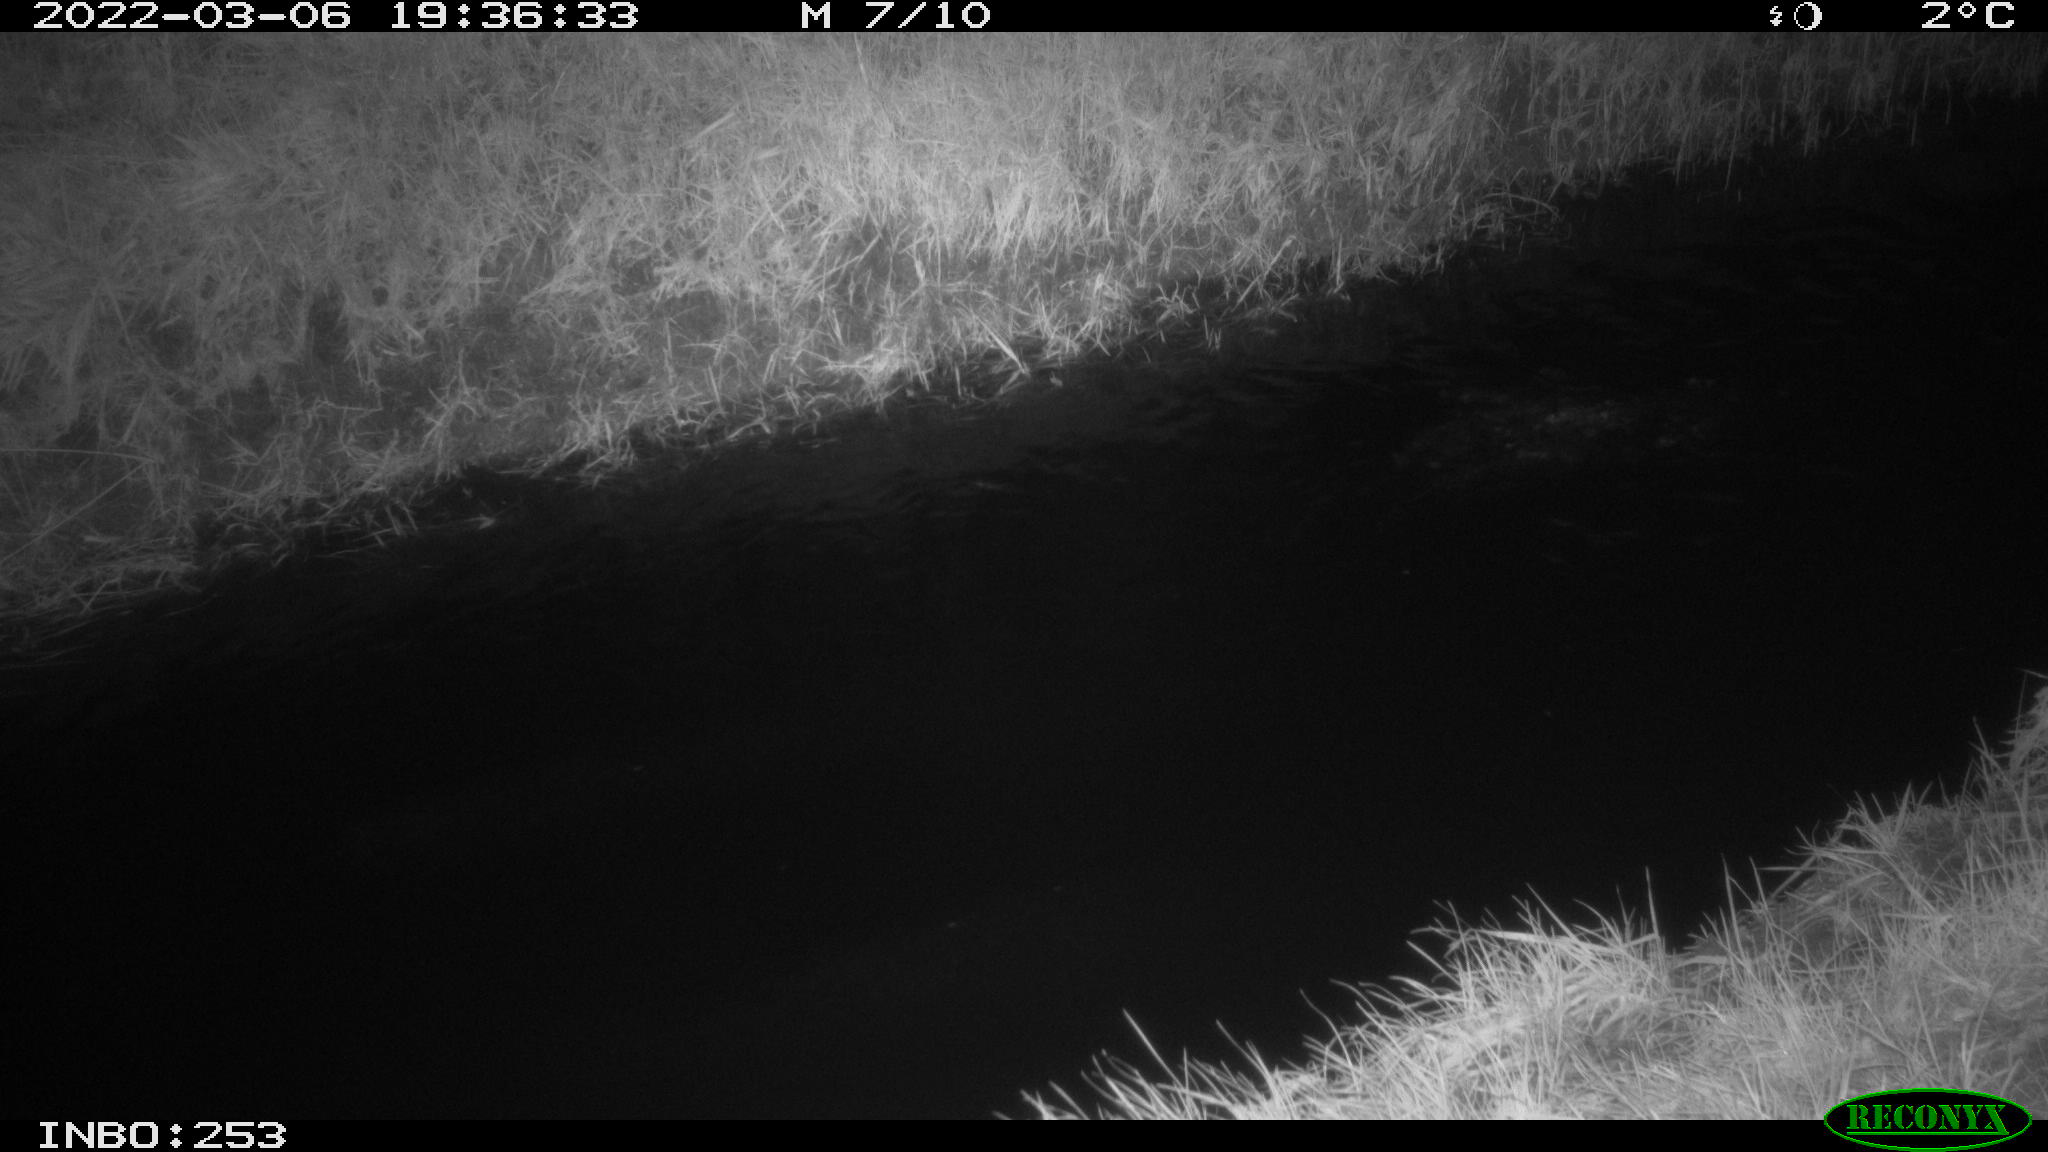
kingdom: Animalia
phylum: Chordata
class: Aves
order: Anseriformes
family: Anatidae
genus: Anas
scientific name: Anas platyrhynchos
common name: Mallard
